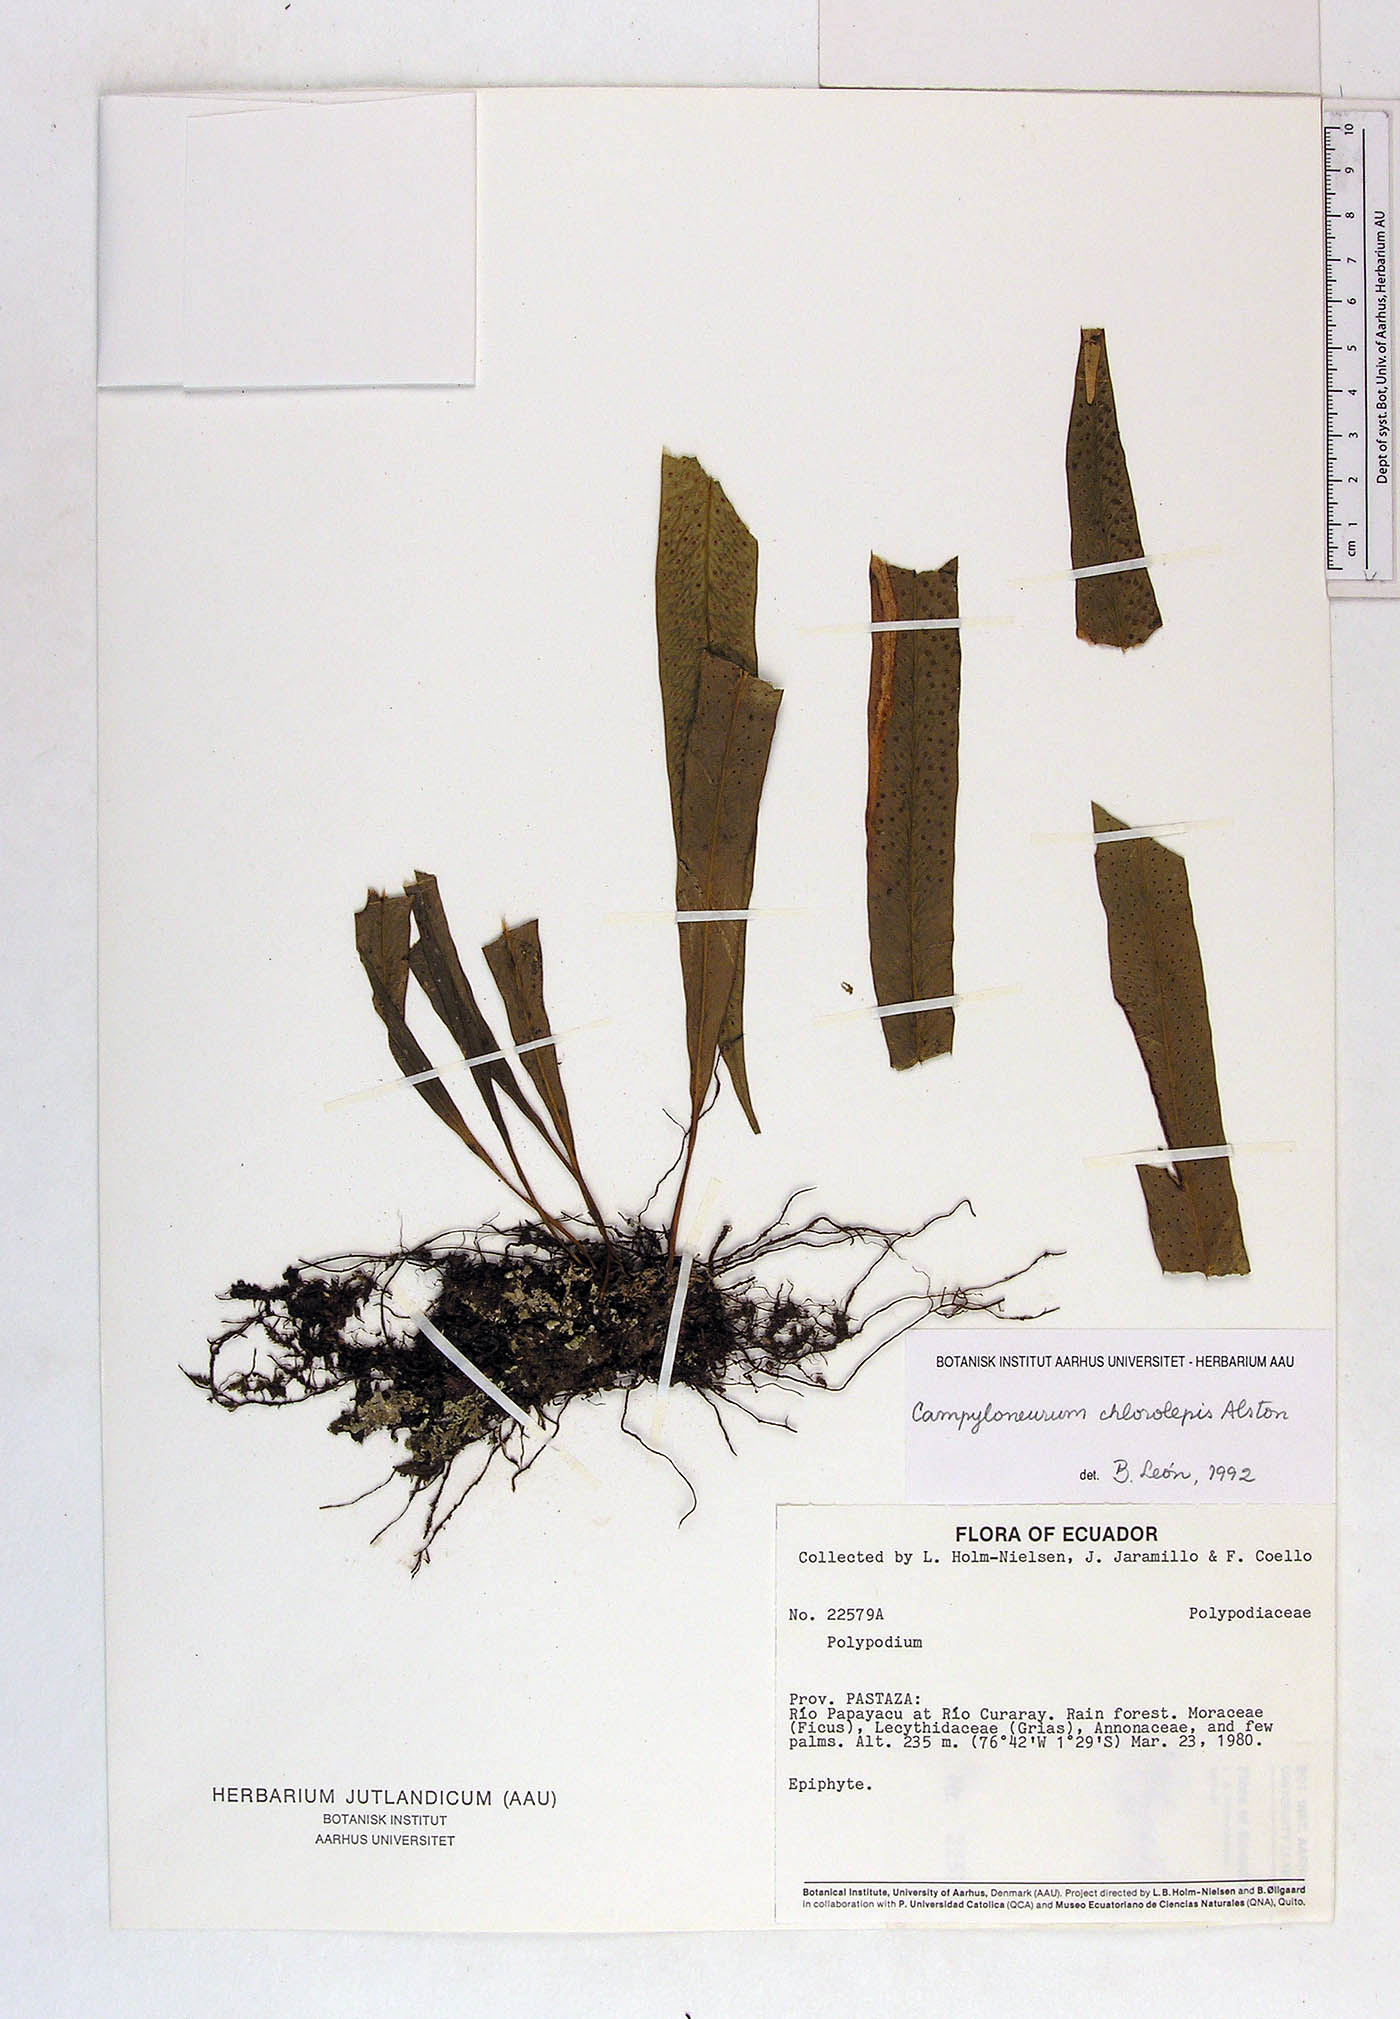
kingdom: Plantae
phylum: Tracheophyta
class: Polypodiopsida
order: Polypodiales
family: Polypodiaceae
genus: Campyloneurum
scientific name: Campyloneurum angustifolium
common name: Narrow-leaf strap fern
